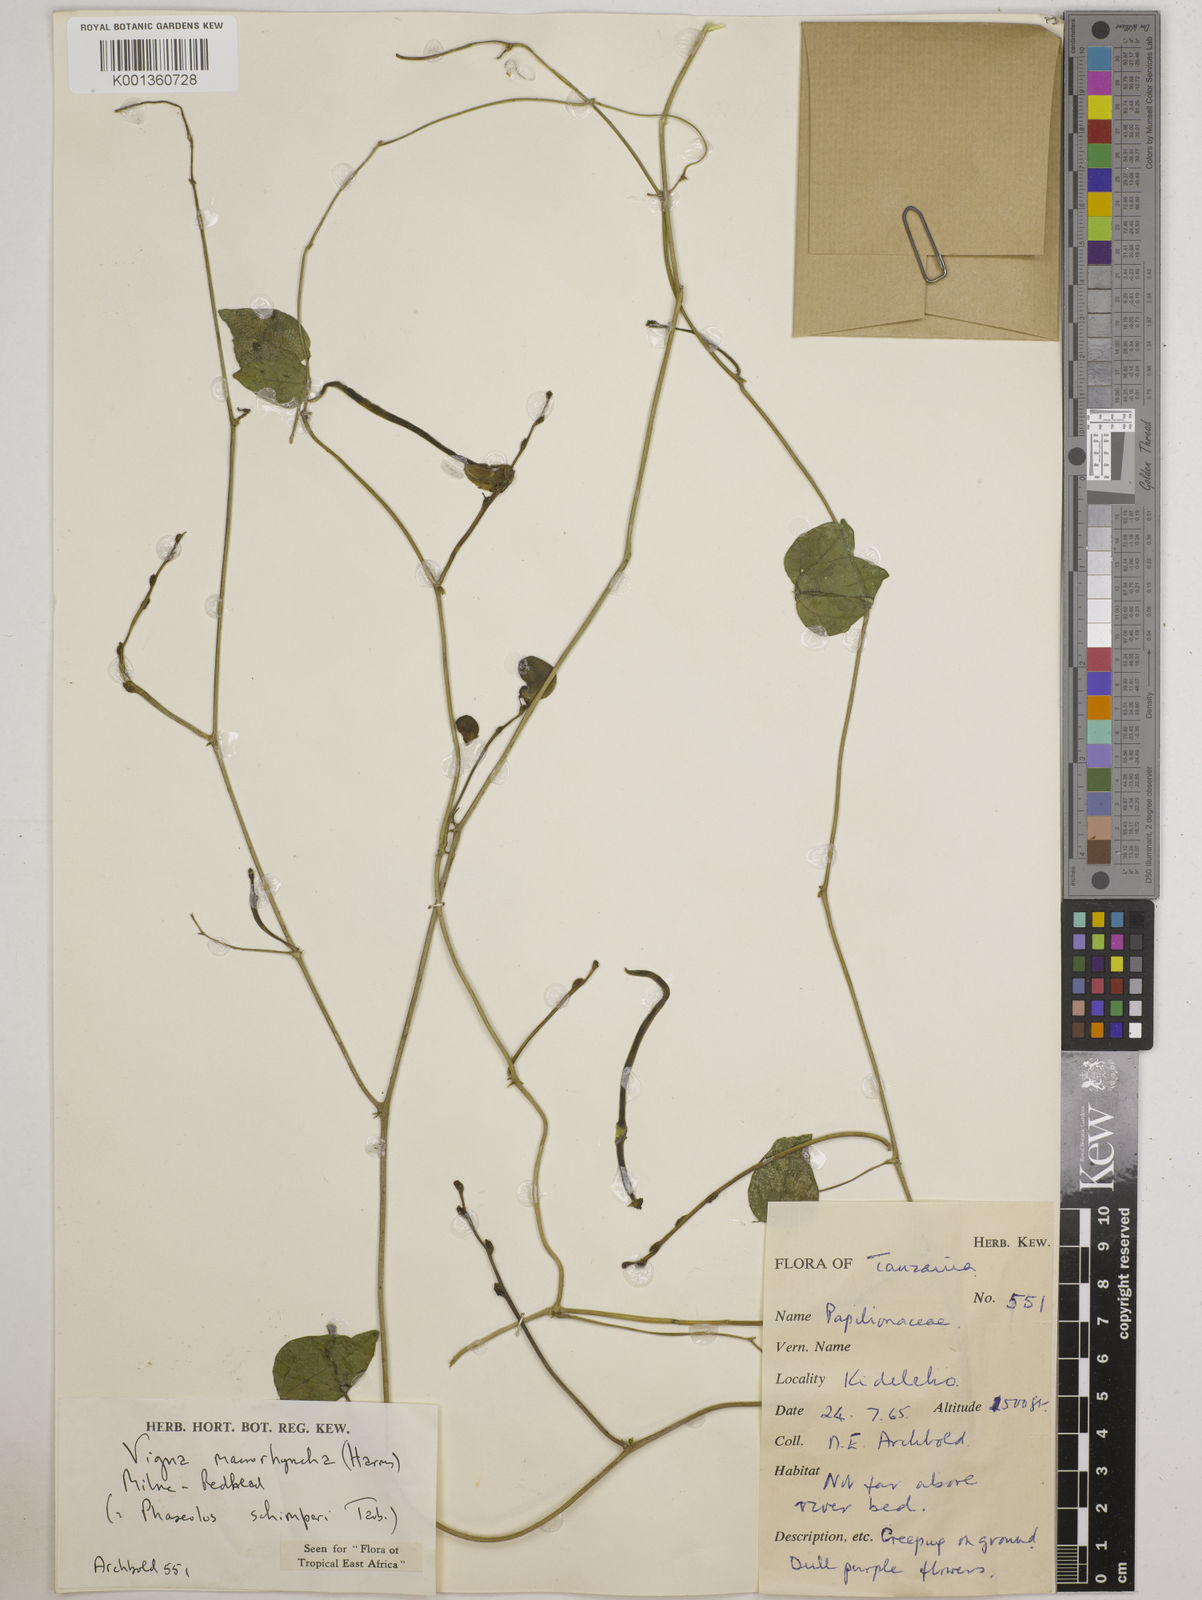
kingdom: Plantae
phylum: Tracheophyta
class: Magnoliopsida
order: Fabales
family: Fabaceae
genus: Wajira
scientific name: Wajira grahamiana
